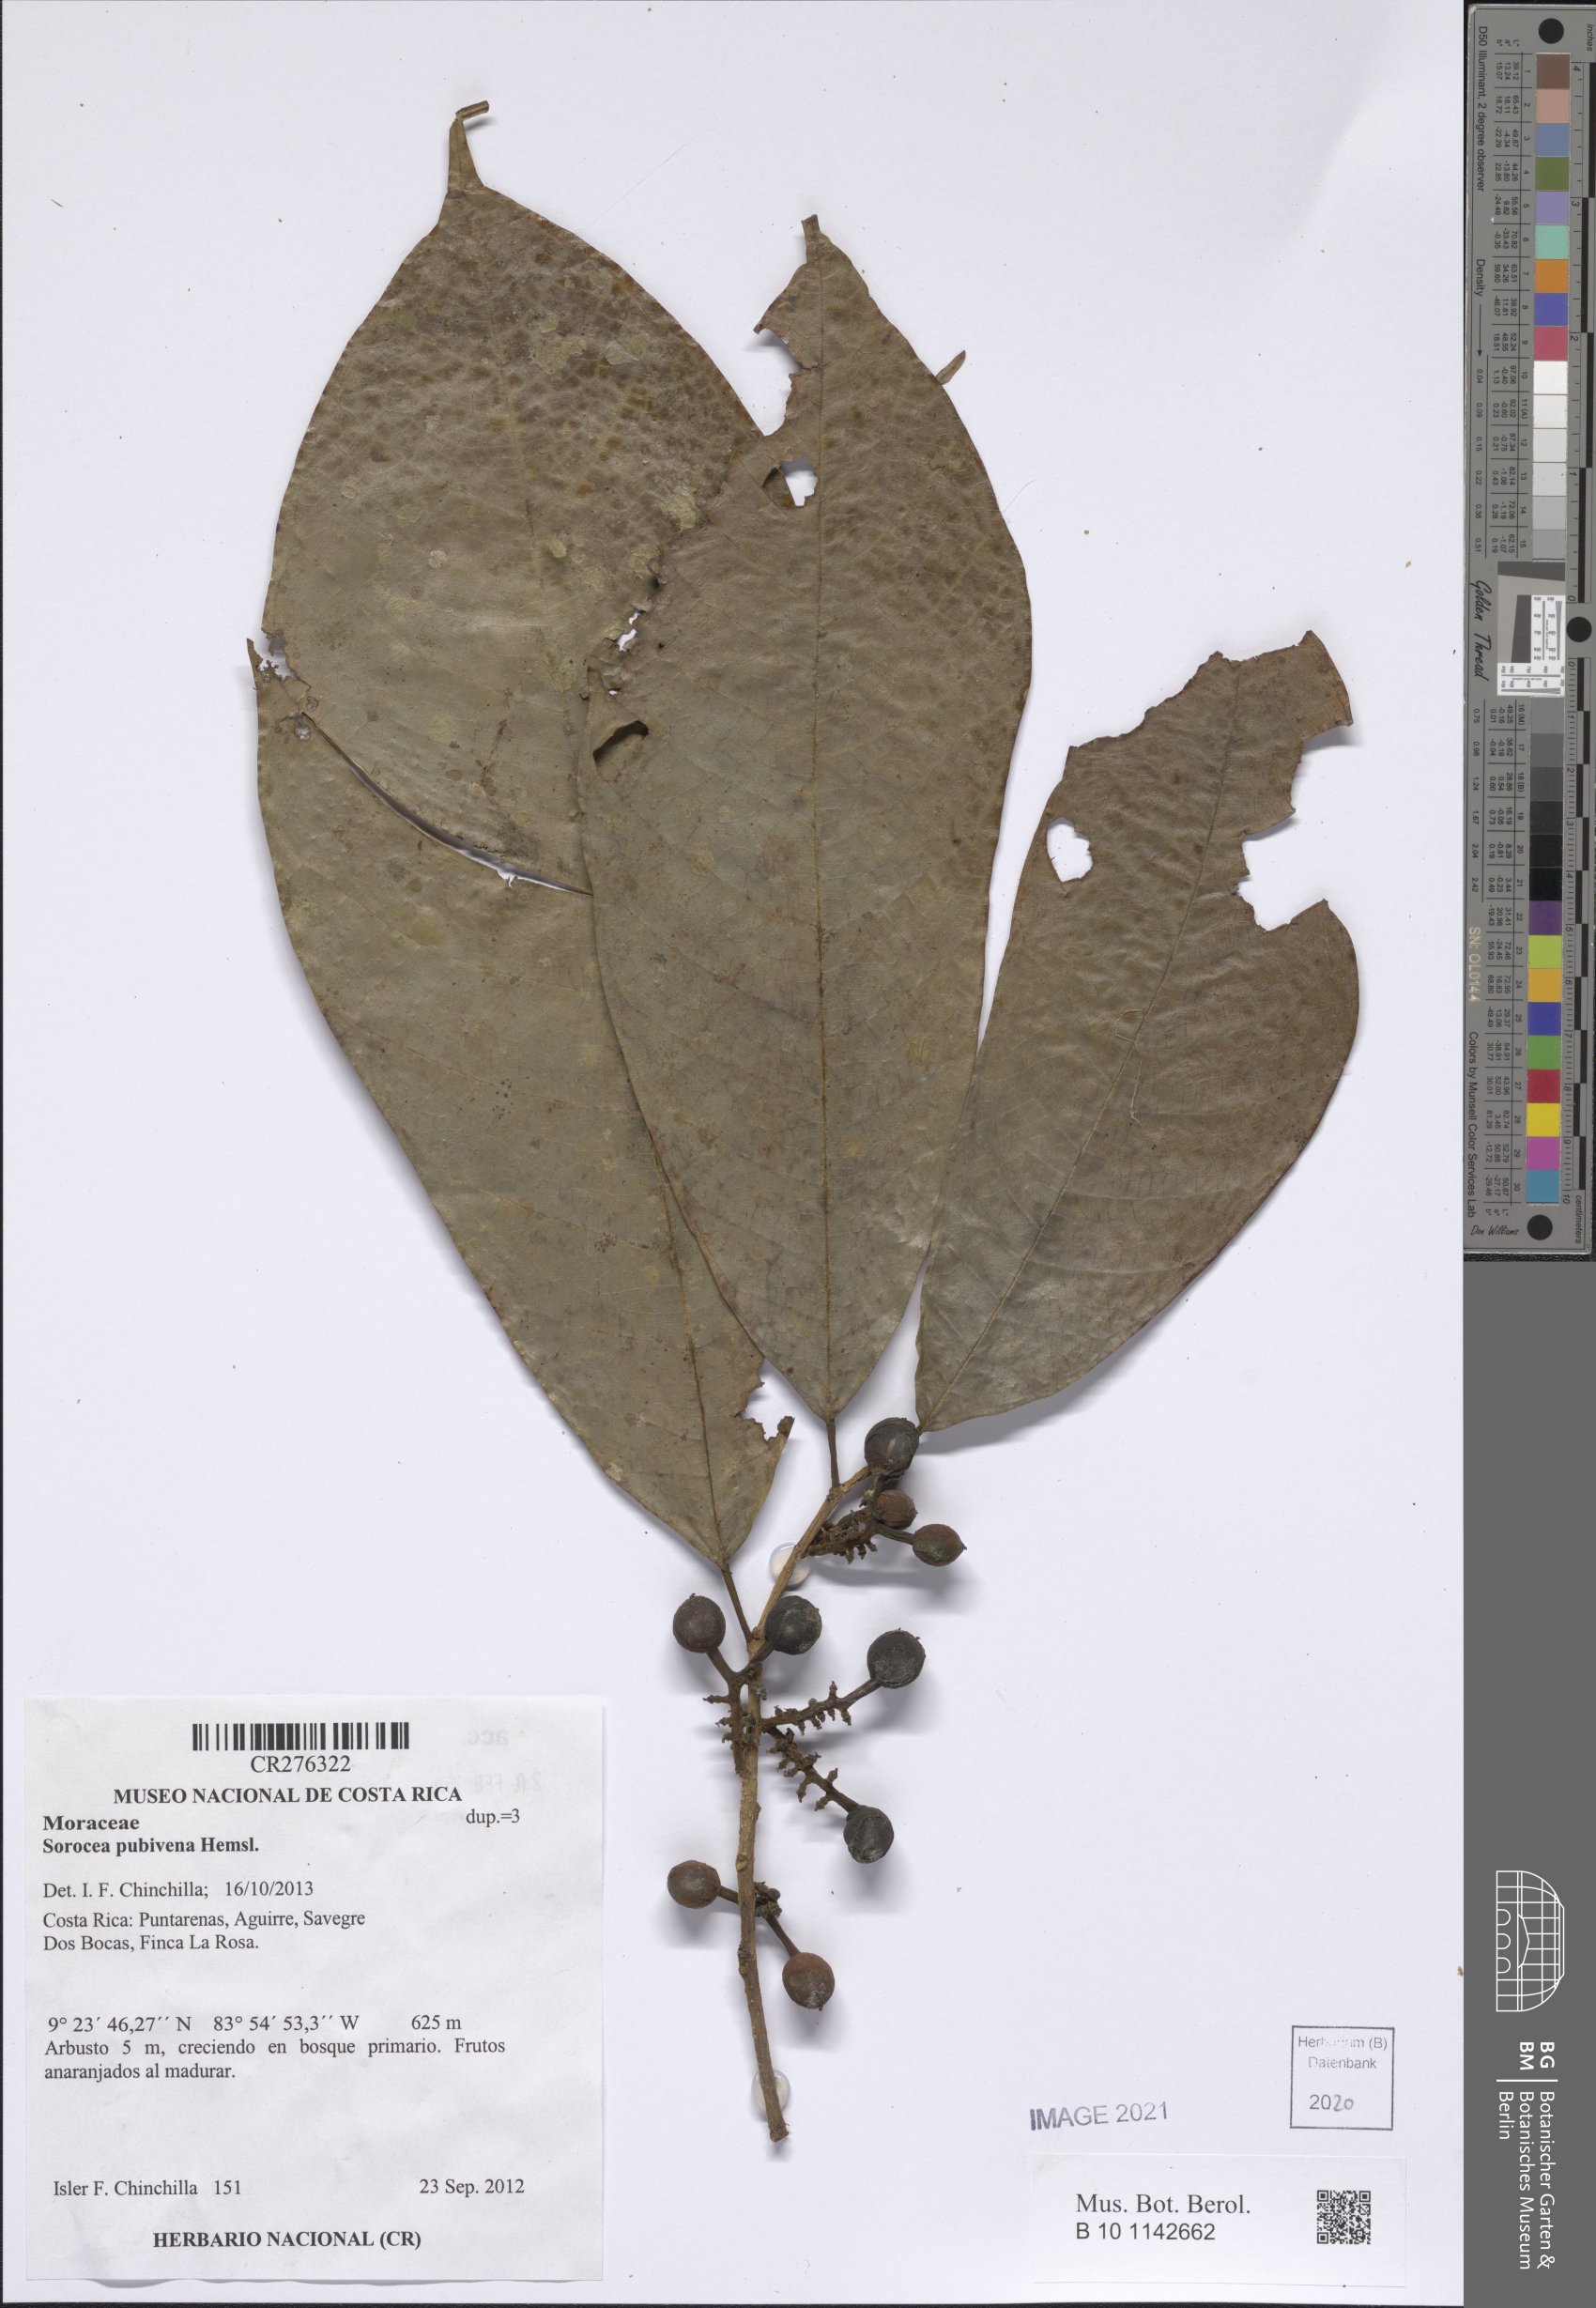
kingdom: Plantae
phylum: Tracheophyta
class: Magnoliopsida
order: Rosales
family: Moraceae
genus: Sorocea
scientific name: Sorocea pubivena
